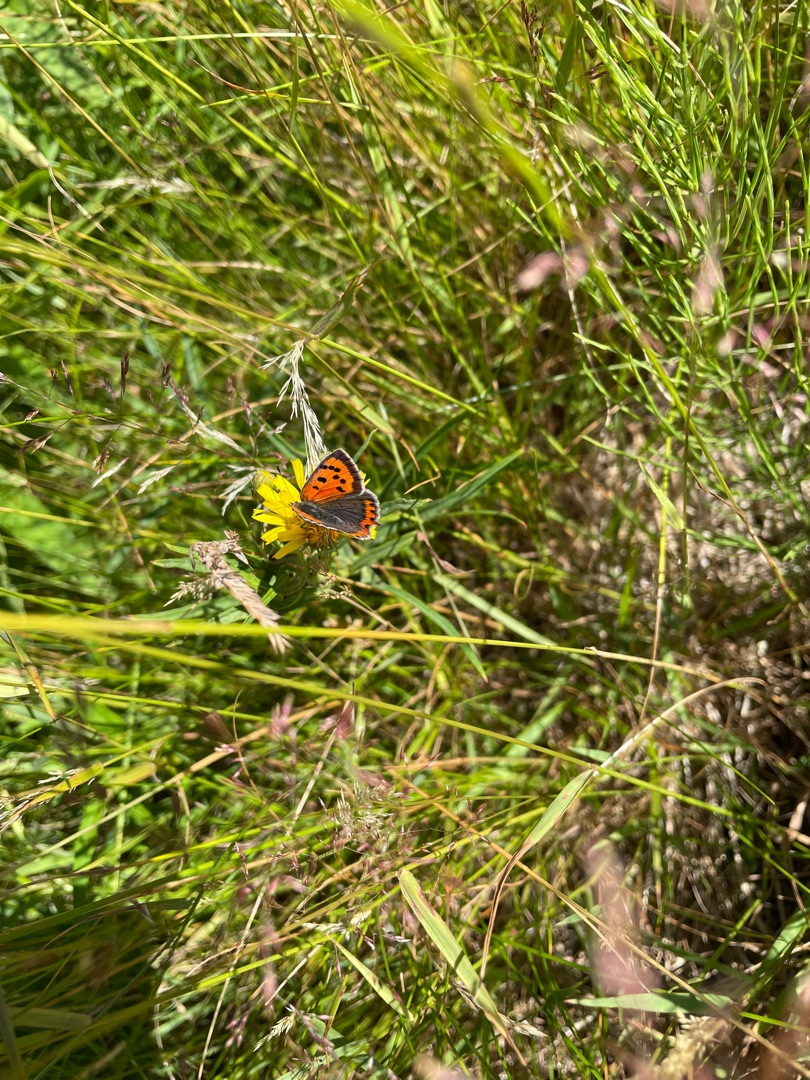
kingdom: Animalia
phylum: Arthropoda
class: Insecta
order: Lepidoptera
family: Lycaenidae
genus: Lycaena
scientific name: Lycaena phlaeas
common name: Lille ildfugl
